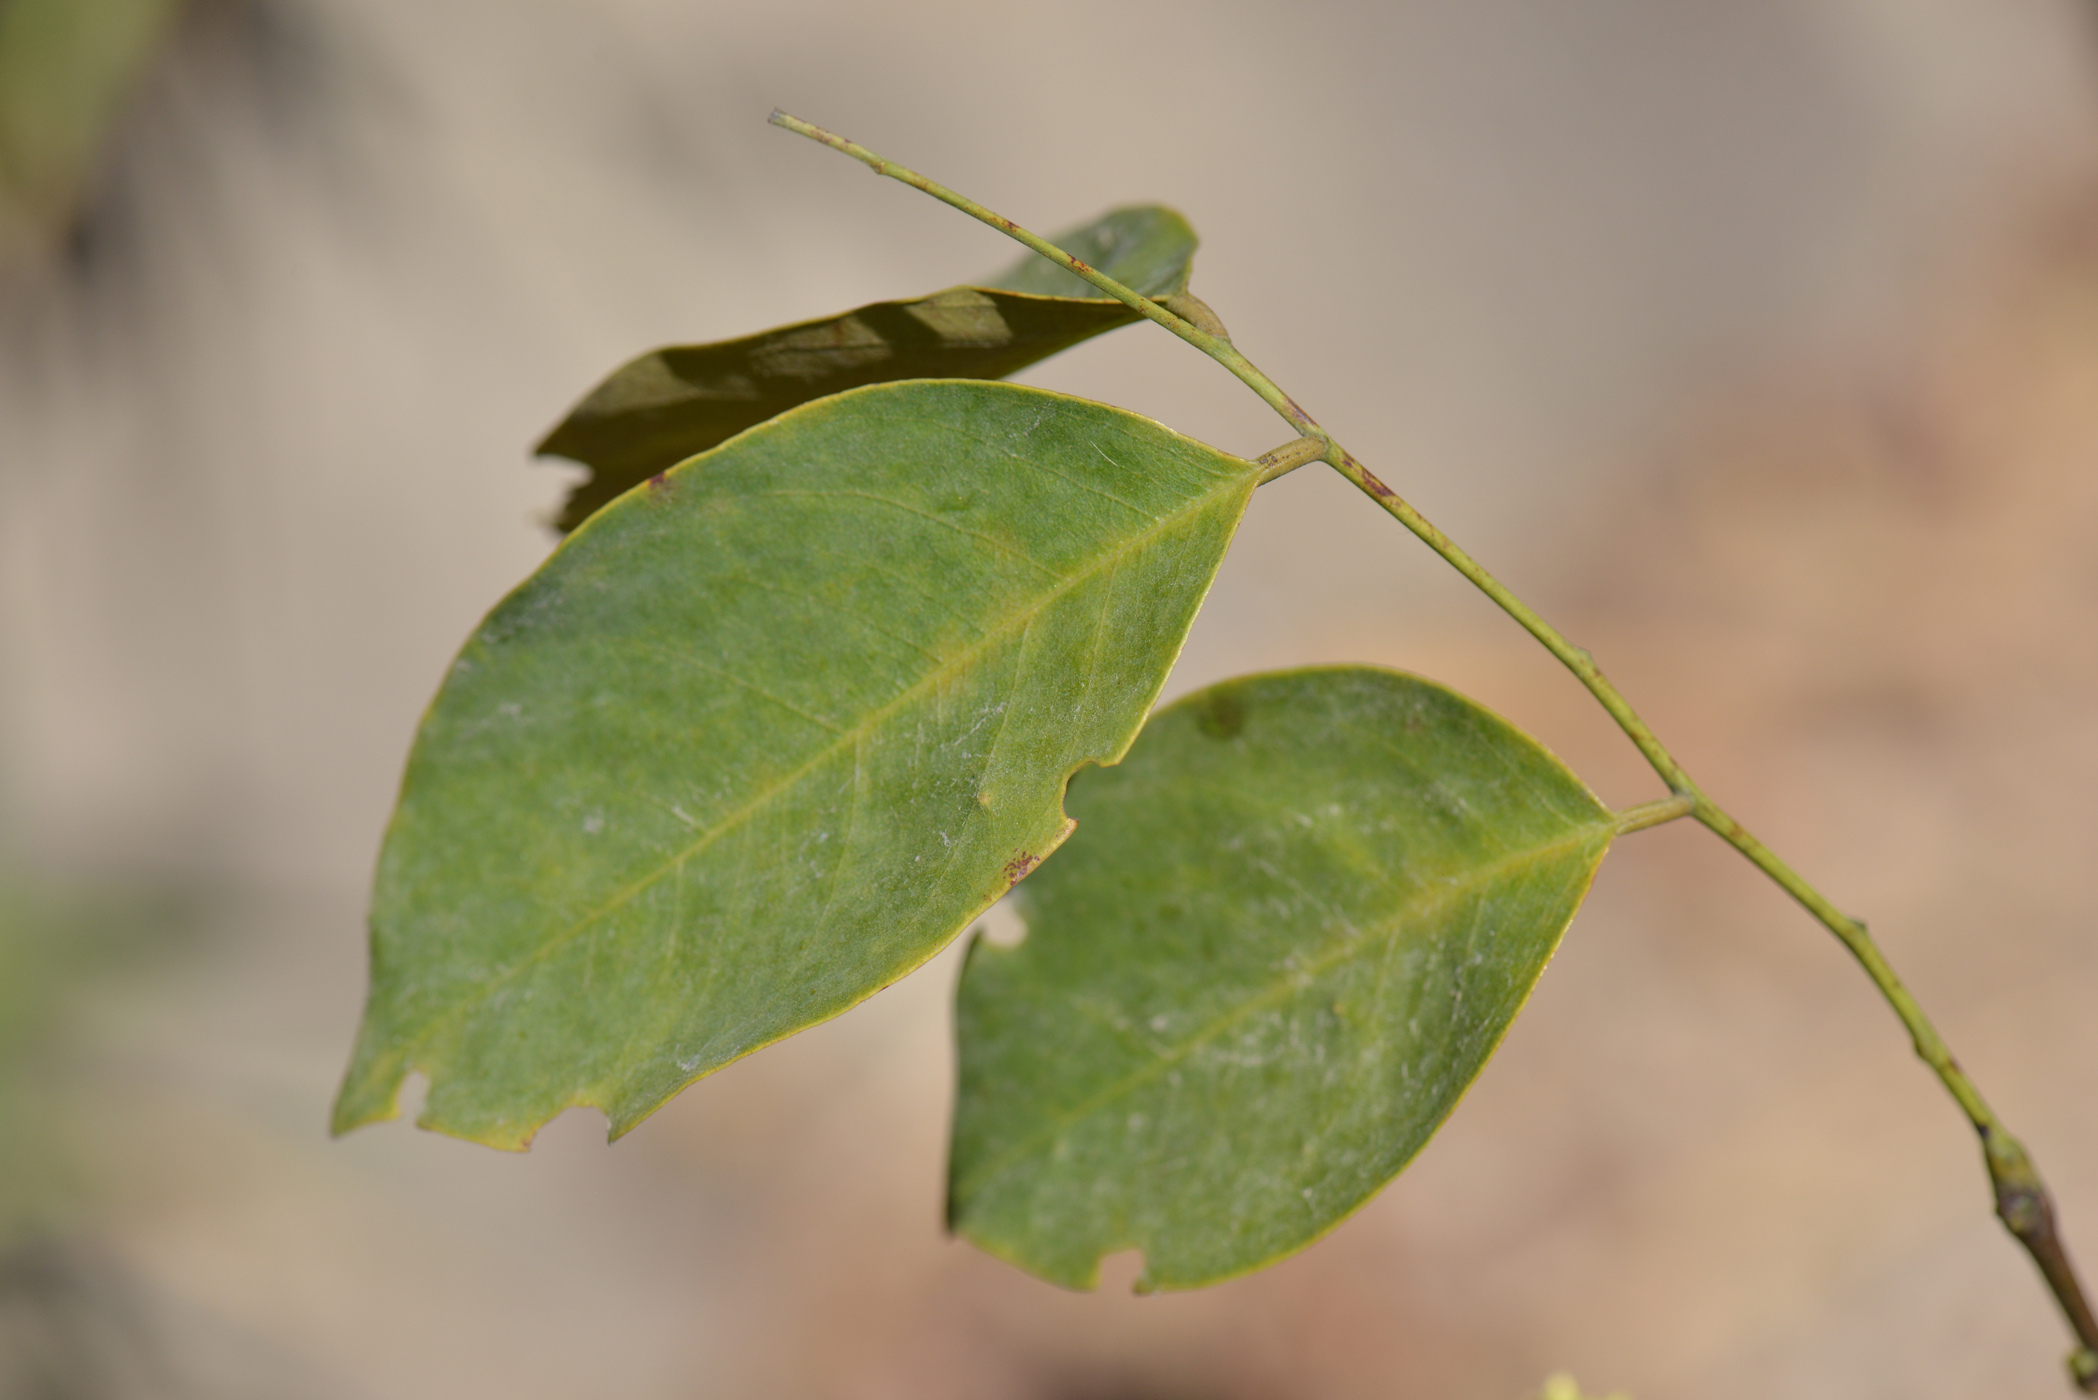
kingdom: Plantae
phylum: Tracheophyta
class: Magnoliopsida
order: Fabales
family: Fabaceae
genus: Dalbergia
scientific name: Dalbergia
